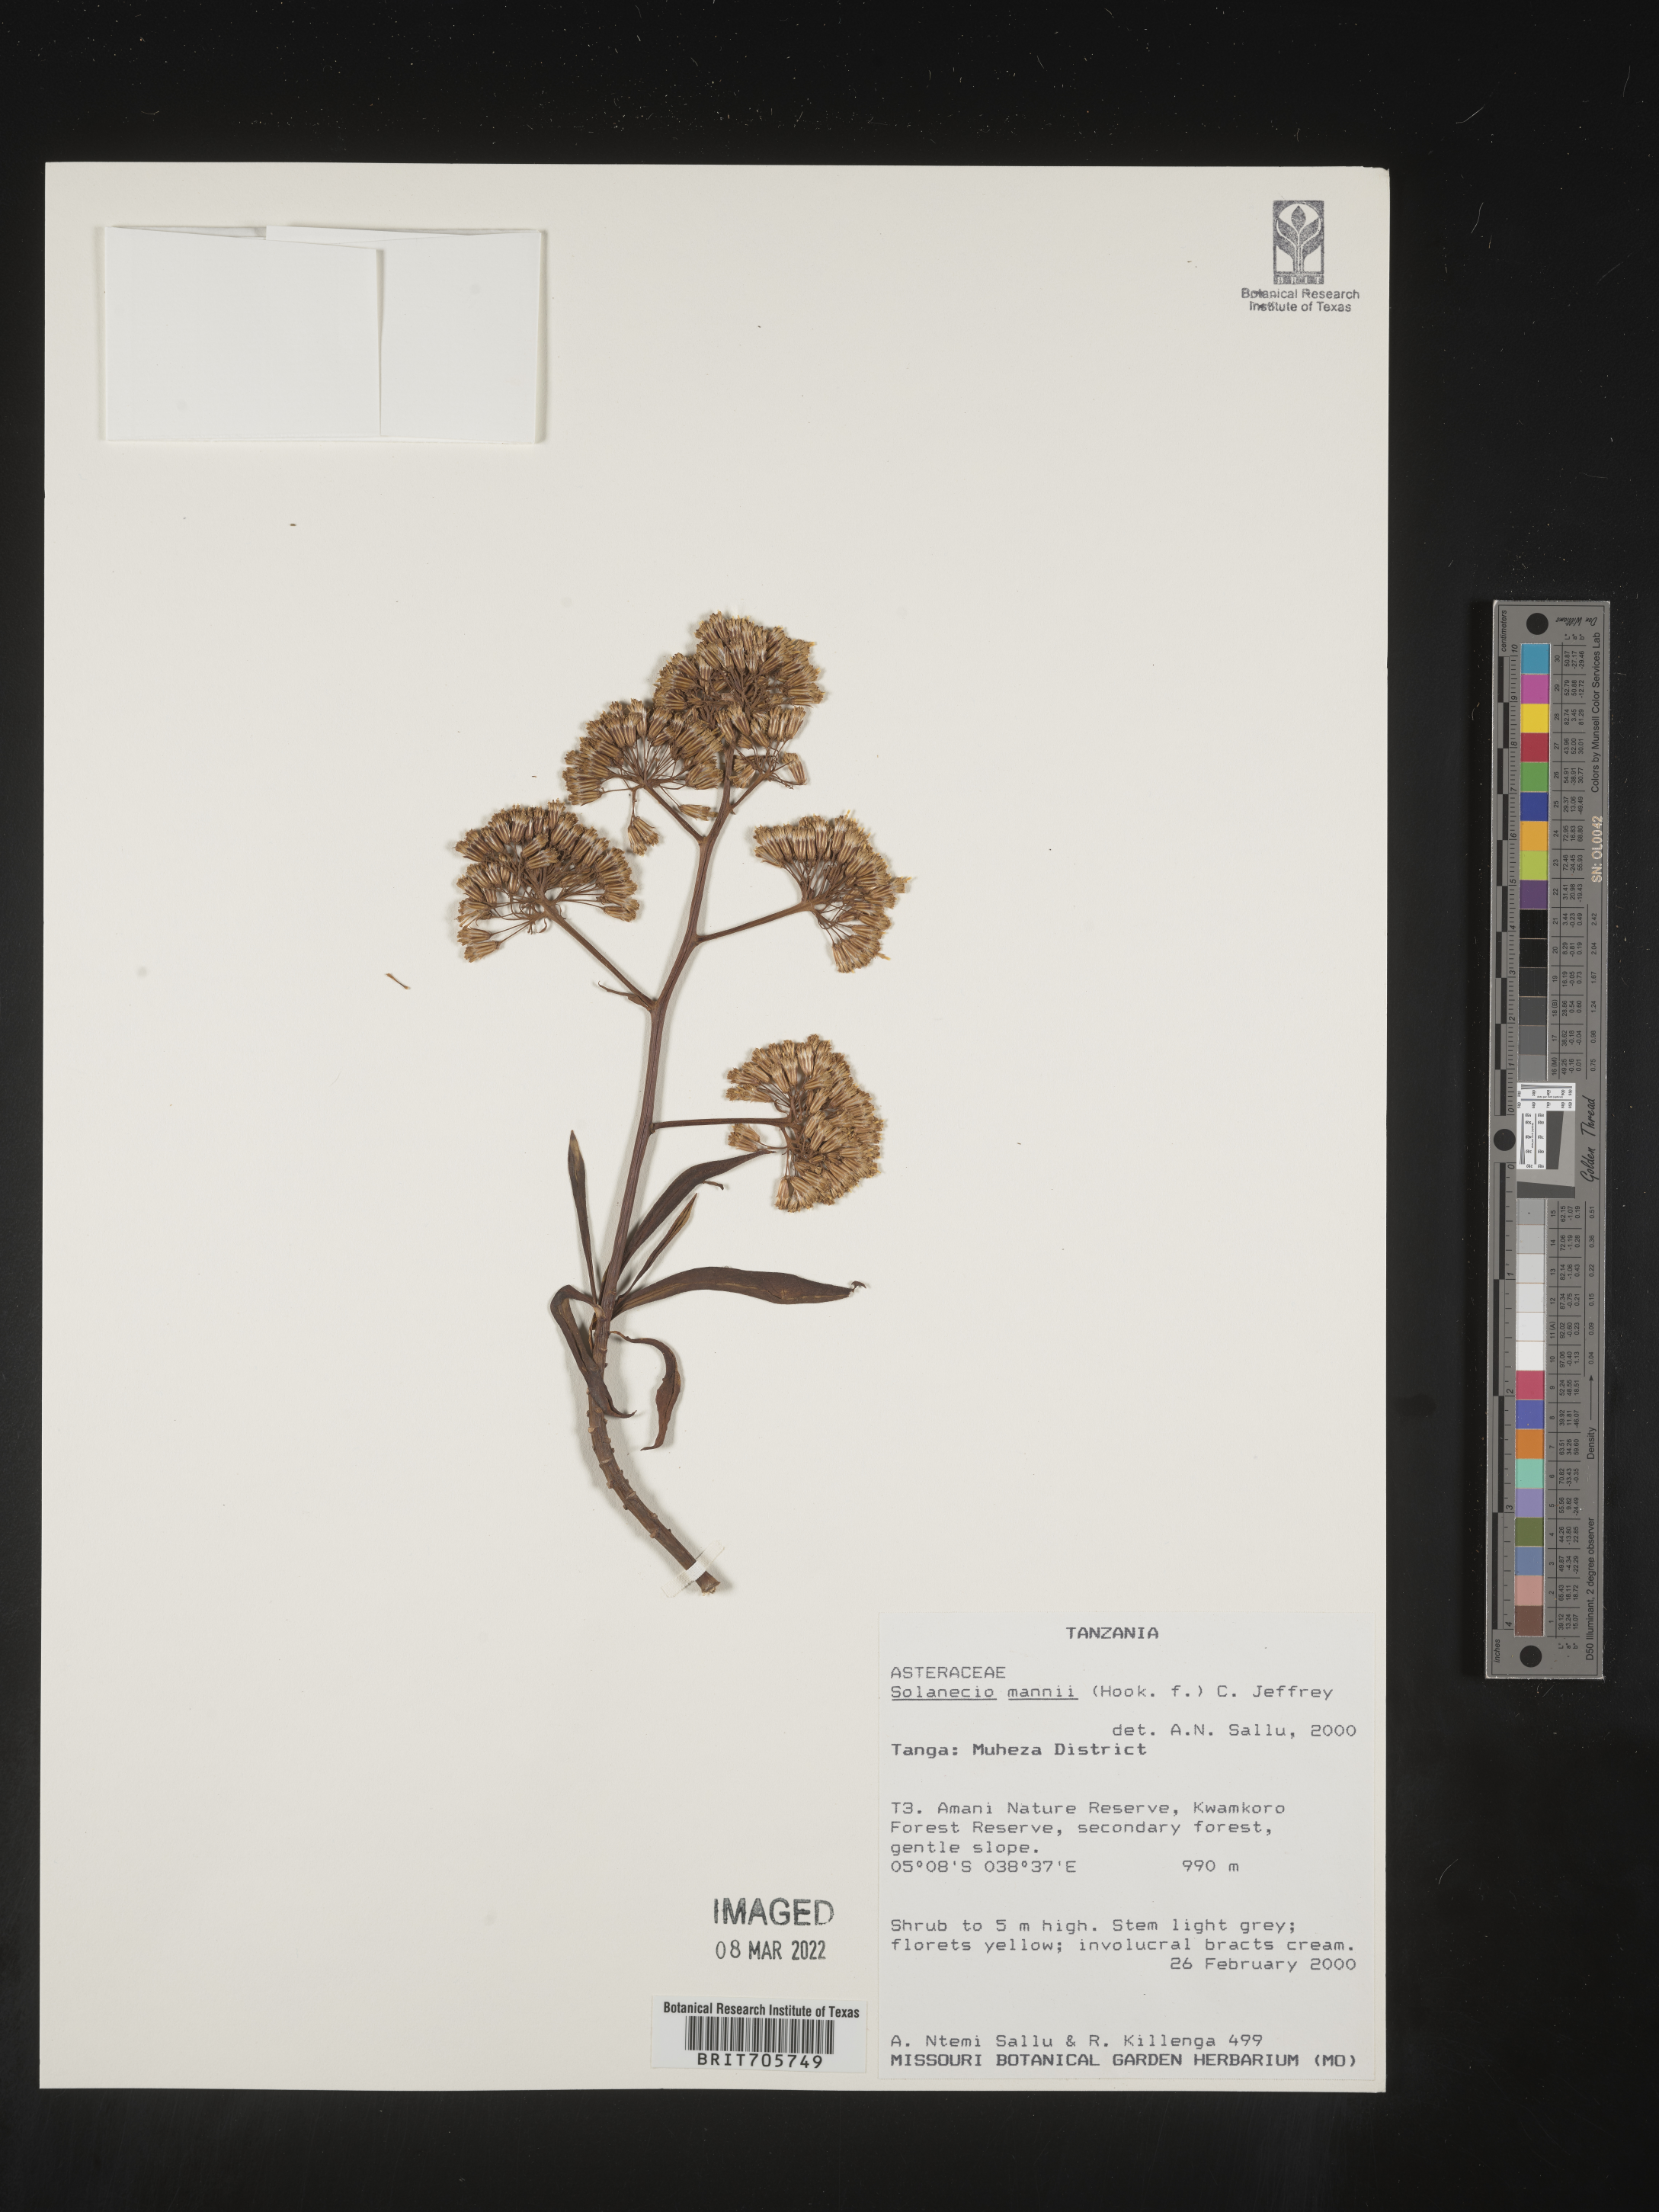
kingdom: Plantae
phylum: Tracheophyta
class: Magnoliopsida
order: Asterales
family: Asteraceae
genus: Solanecio
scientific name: Solanecio
